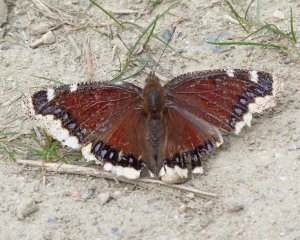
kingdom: Animalia
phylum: Arthropoda
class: Insecta
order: Lepidoptera
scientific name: Lepidoptera
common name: Butterflies
